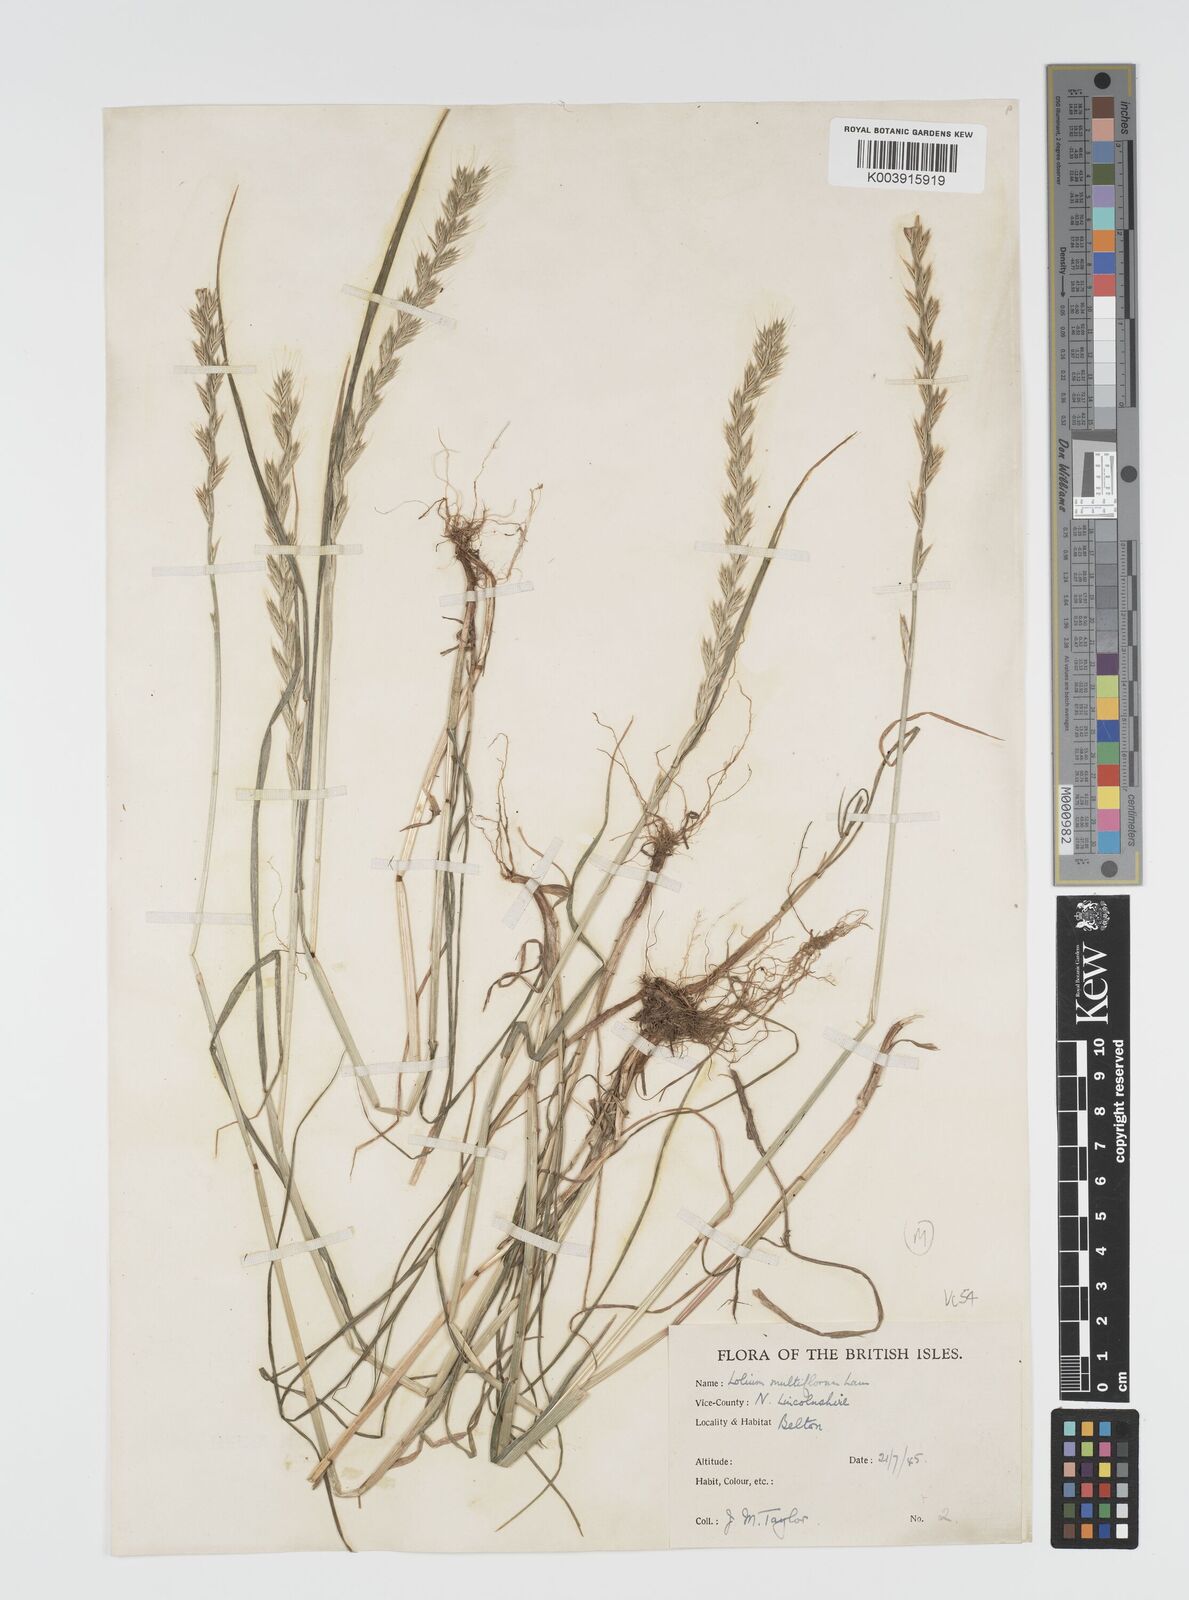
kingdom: Plantae
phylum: Tracheophyta
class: Liliopsida
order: Poales
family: Poaceae
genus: Lolium
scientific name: Lolium multiflorum
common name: Annual ryegrass
